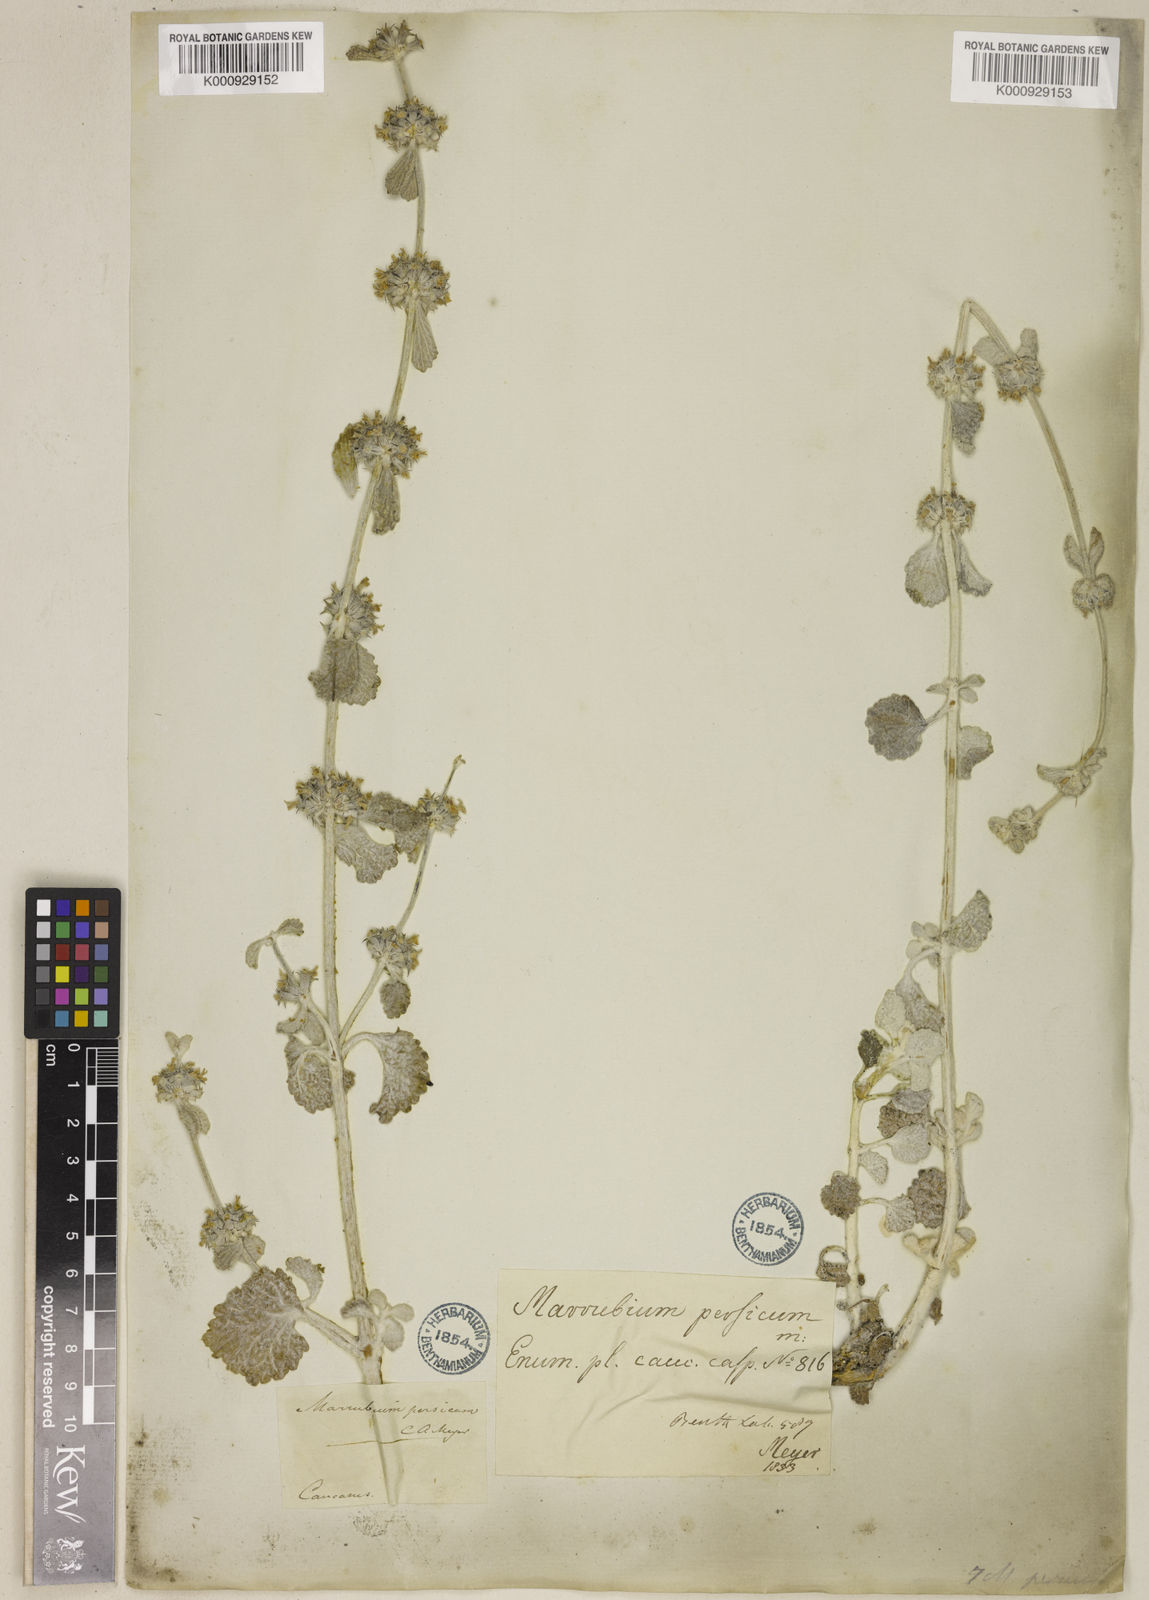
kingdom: Plantae
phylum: Tracheophyta
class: Magnoliopsida
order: Lamiales
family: Lamiaceae
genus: Marrubium
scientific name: Marrubium persicum
